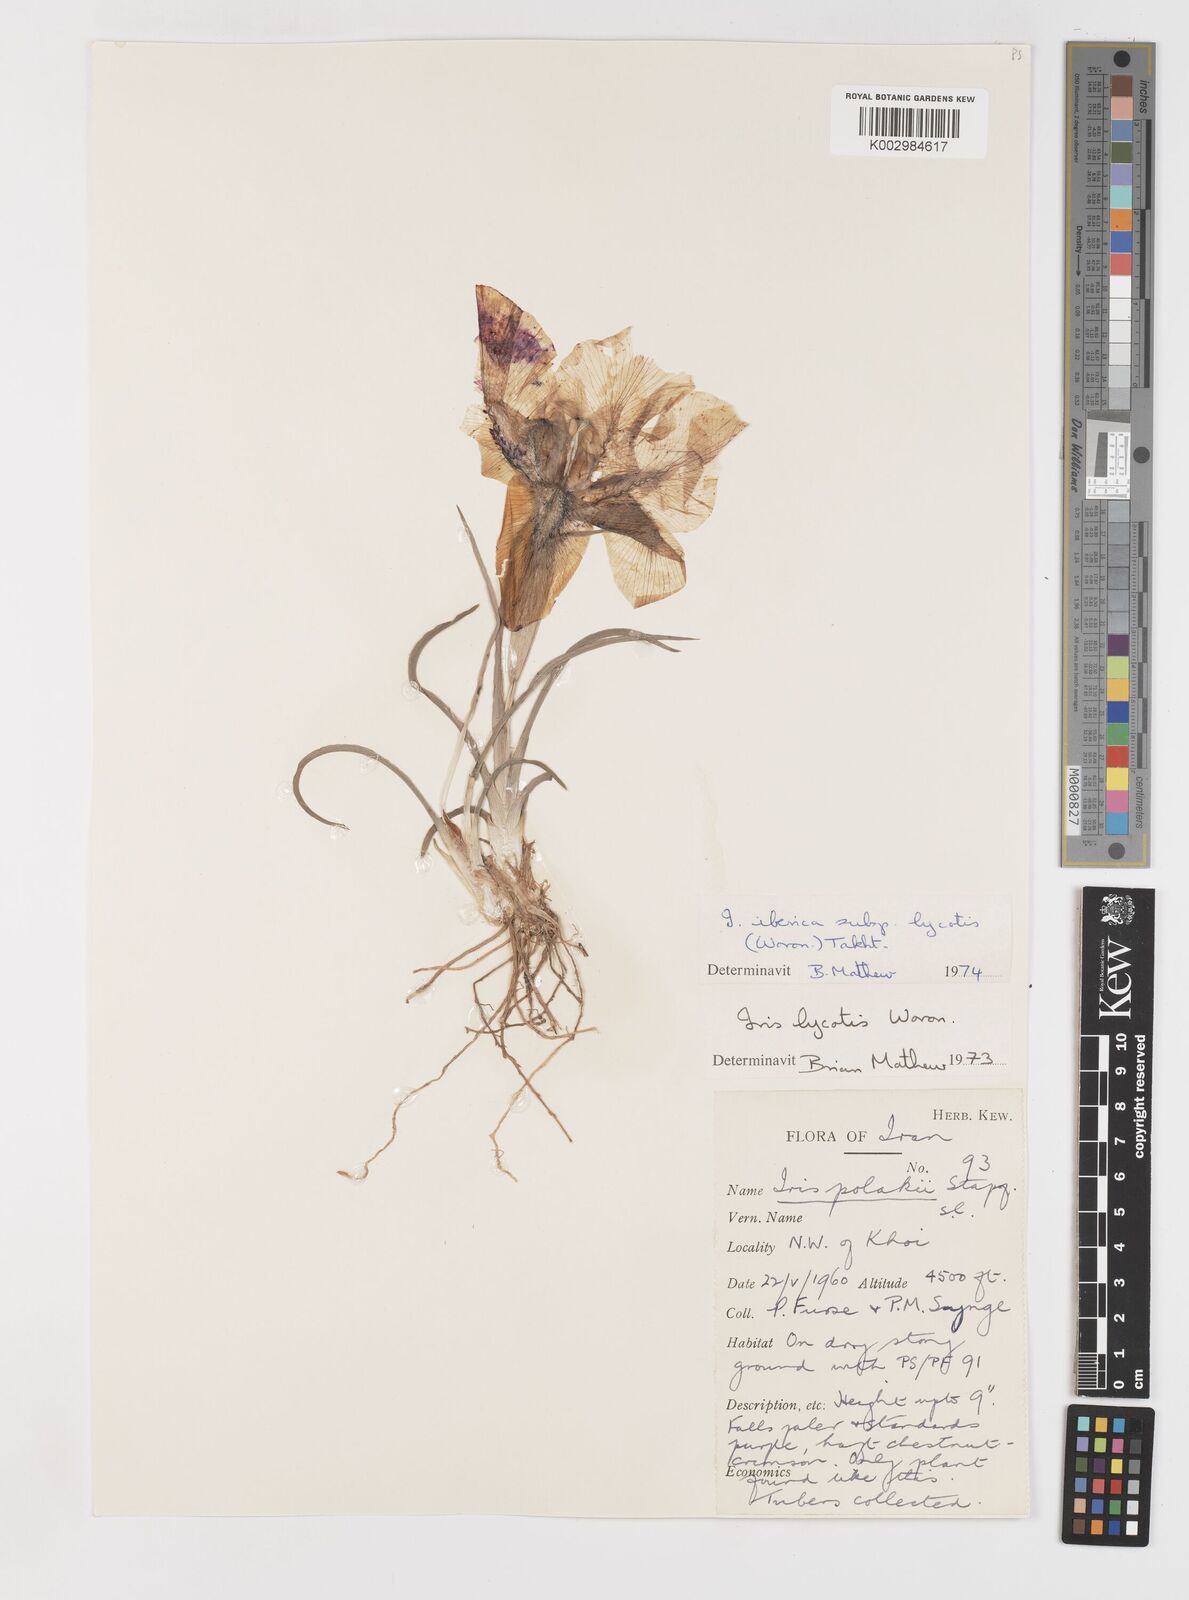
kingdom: Plantae
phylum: Tracheophyta
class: Liliopsida
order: Asparagales
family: Iridaceae
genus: Iris
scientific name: Iris lycotis
